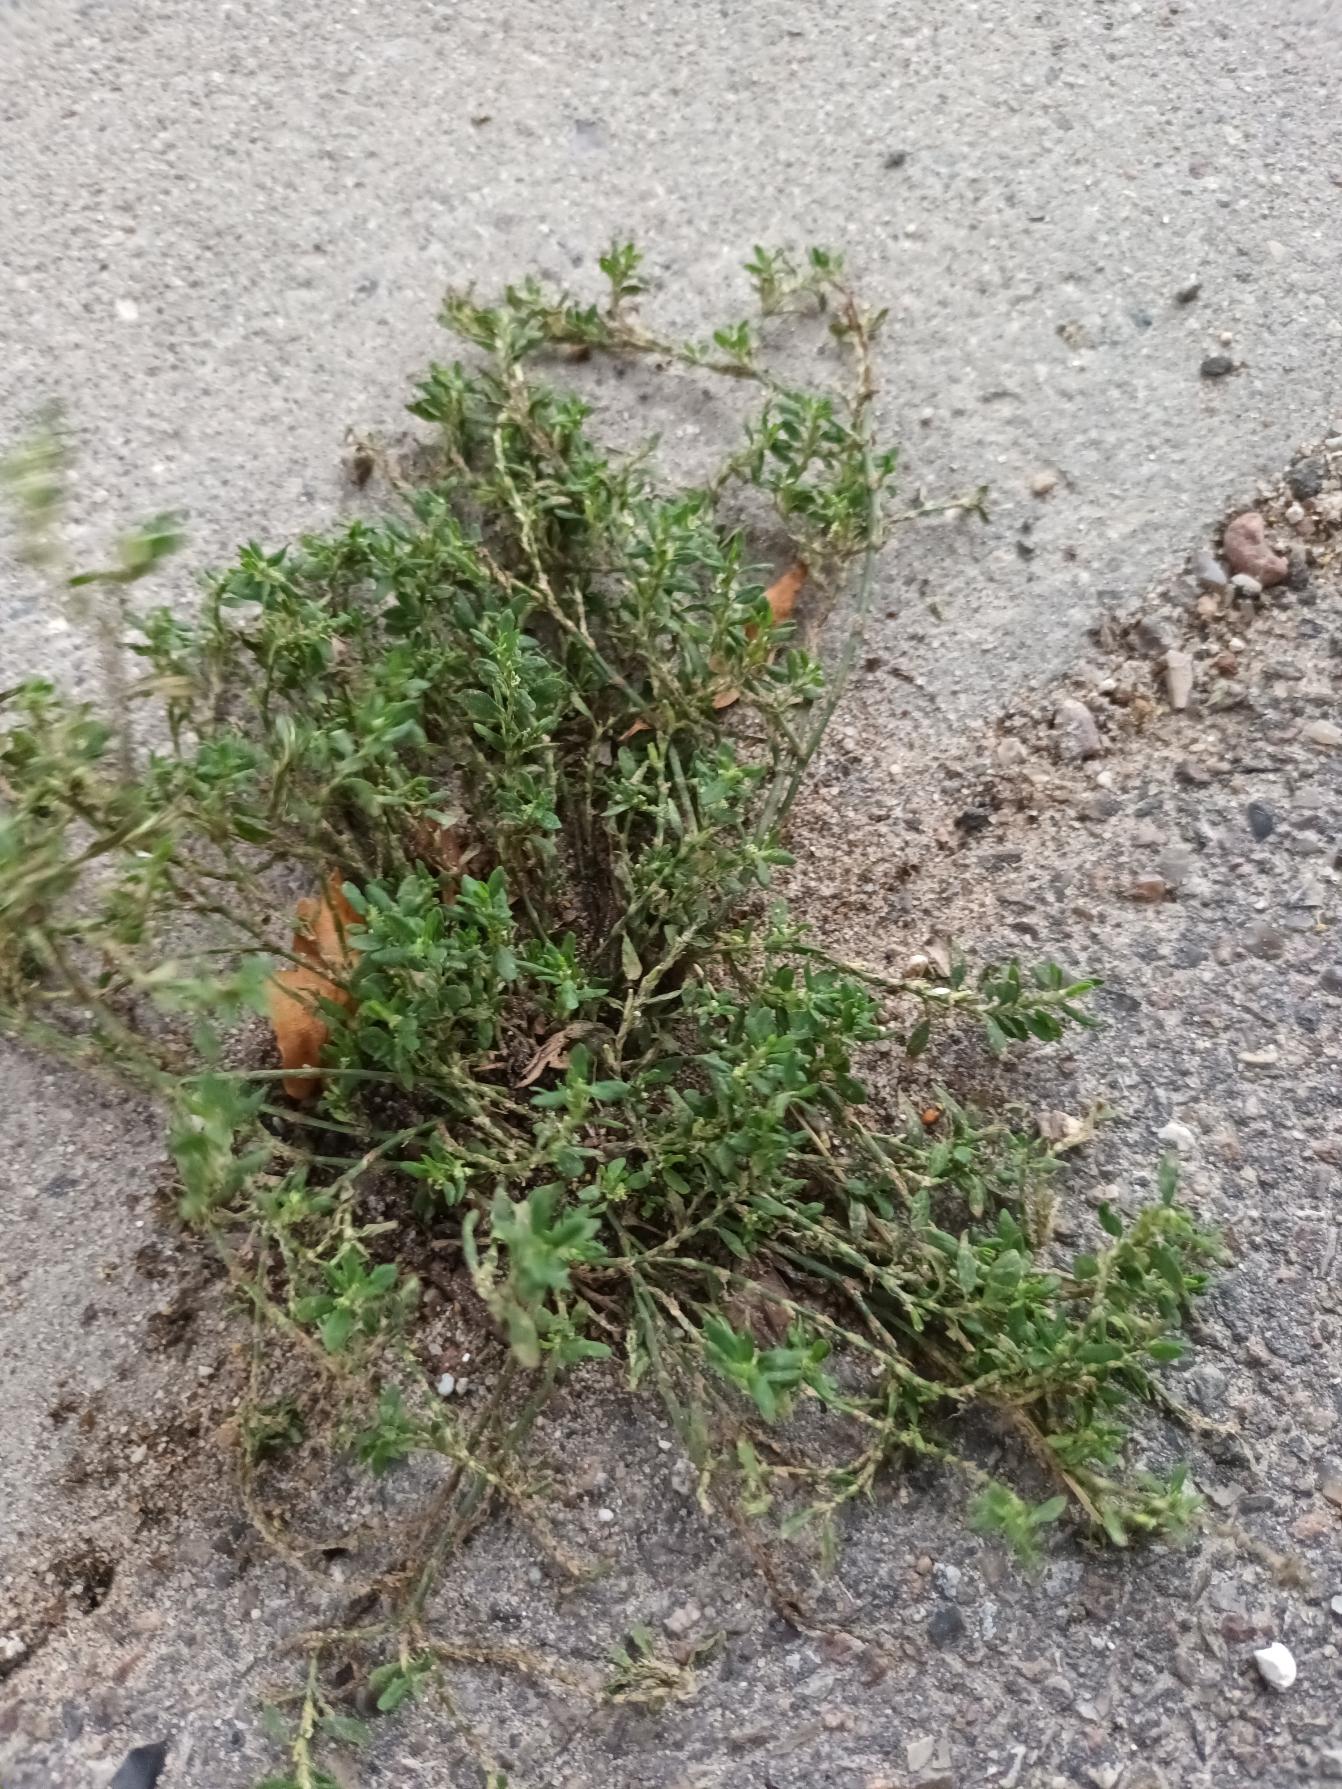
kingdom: Plantae
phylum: Tracheophyta
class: Magnoliopsida
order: Caryophyllales
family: Polygonaceae
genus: Polygonum
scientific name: Polygonum arenastrum
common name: Liggende vej-pileurt
